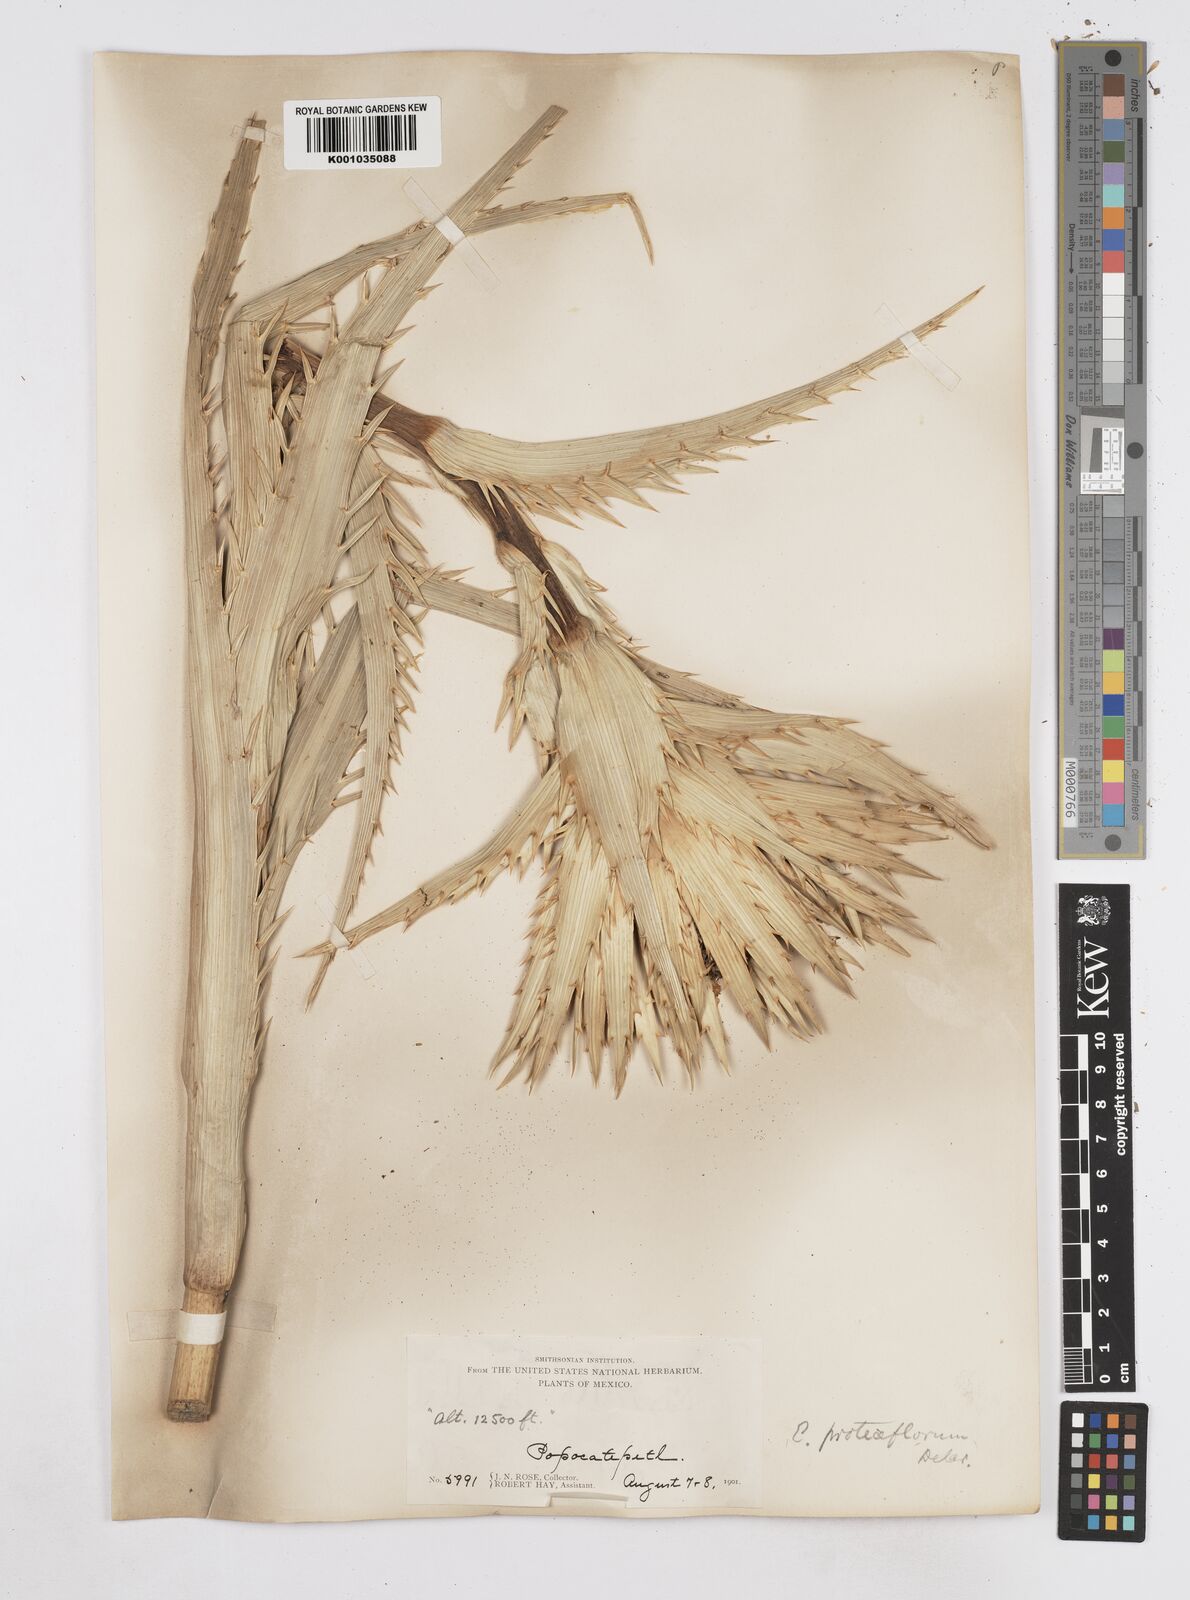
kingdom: Plantae
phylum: Tracheophyta
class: Magnoliopsida
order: Apiales
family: Apiaceae
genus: Eryngium
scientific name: Eryngium proteiflorum
